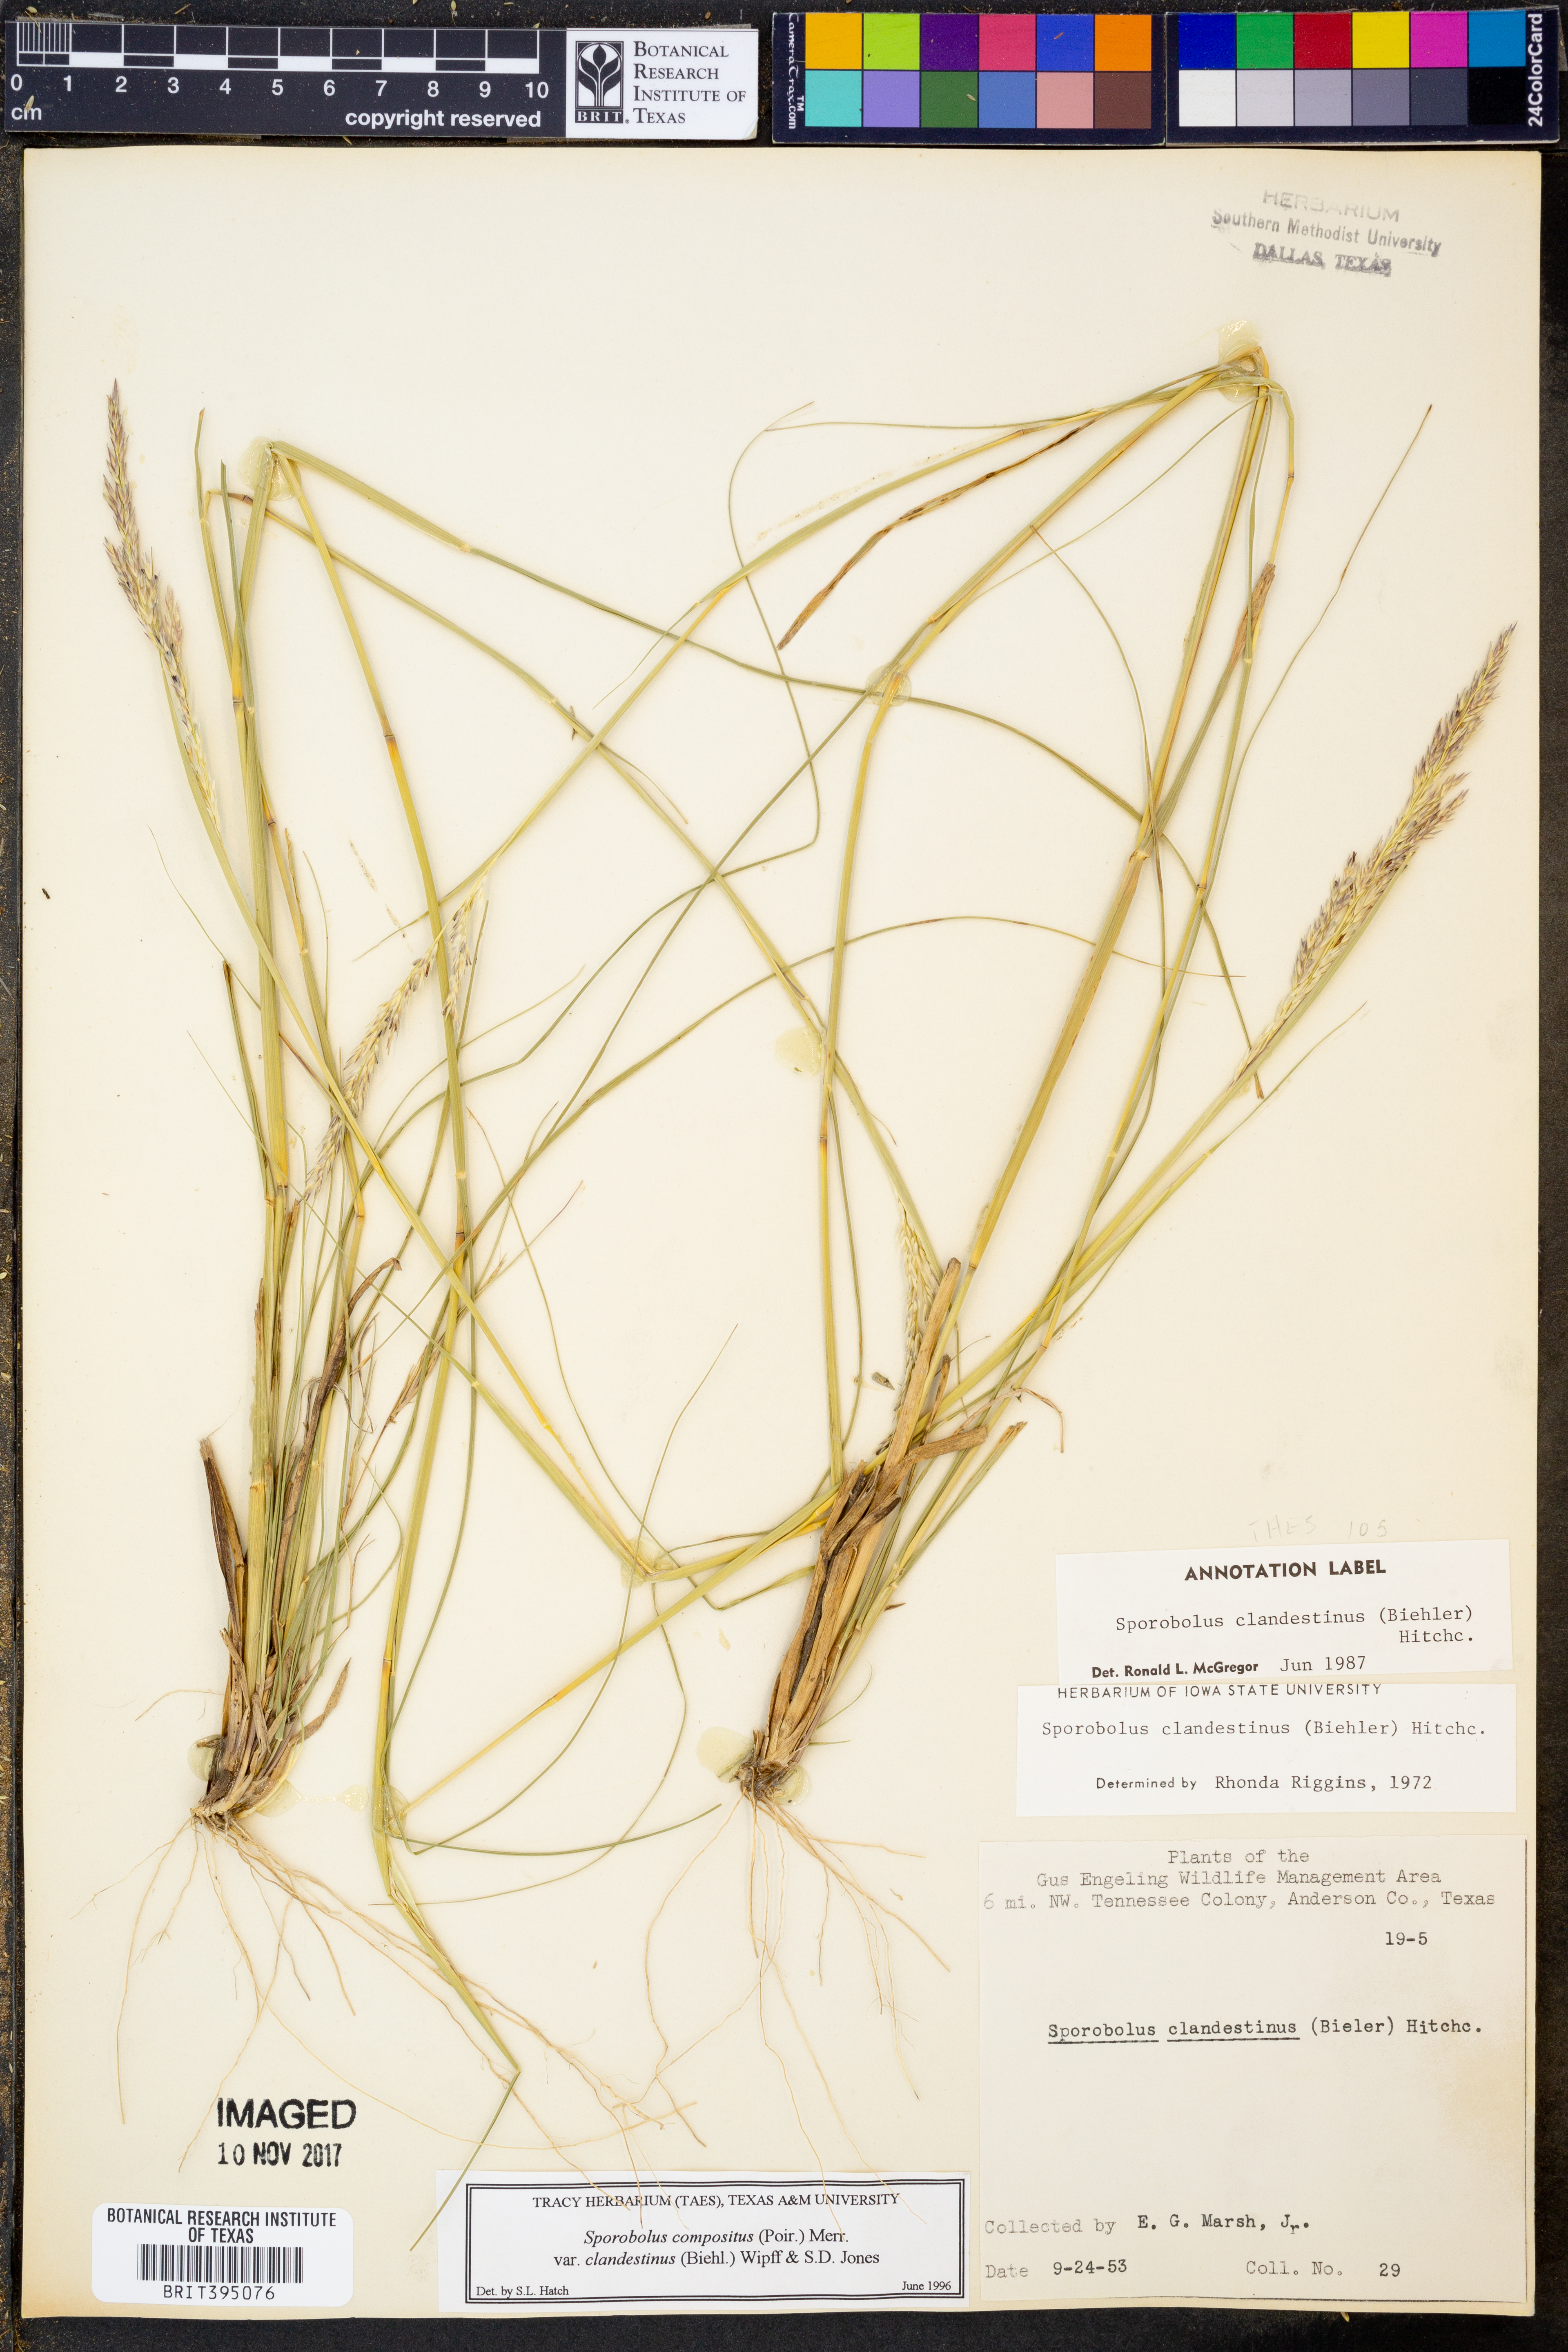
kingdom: Plantae
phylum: Tracheophyta
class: Liliopsida
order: Poales
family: Poaceae
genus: Sporobolus
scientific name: Sporobolus clandestinus
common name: Hidden dropseed
